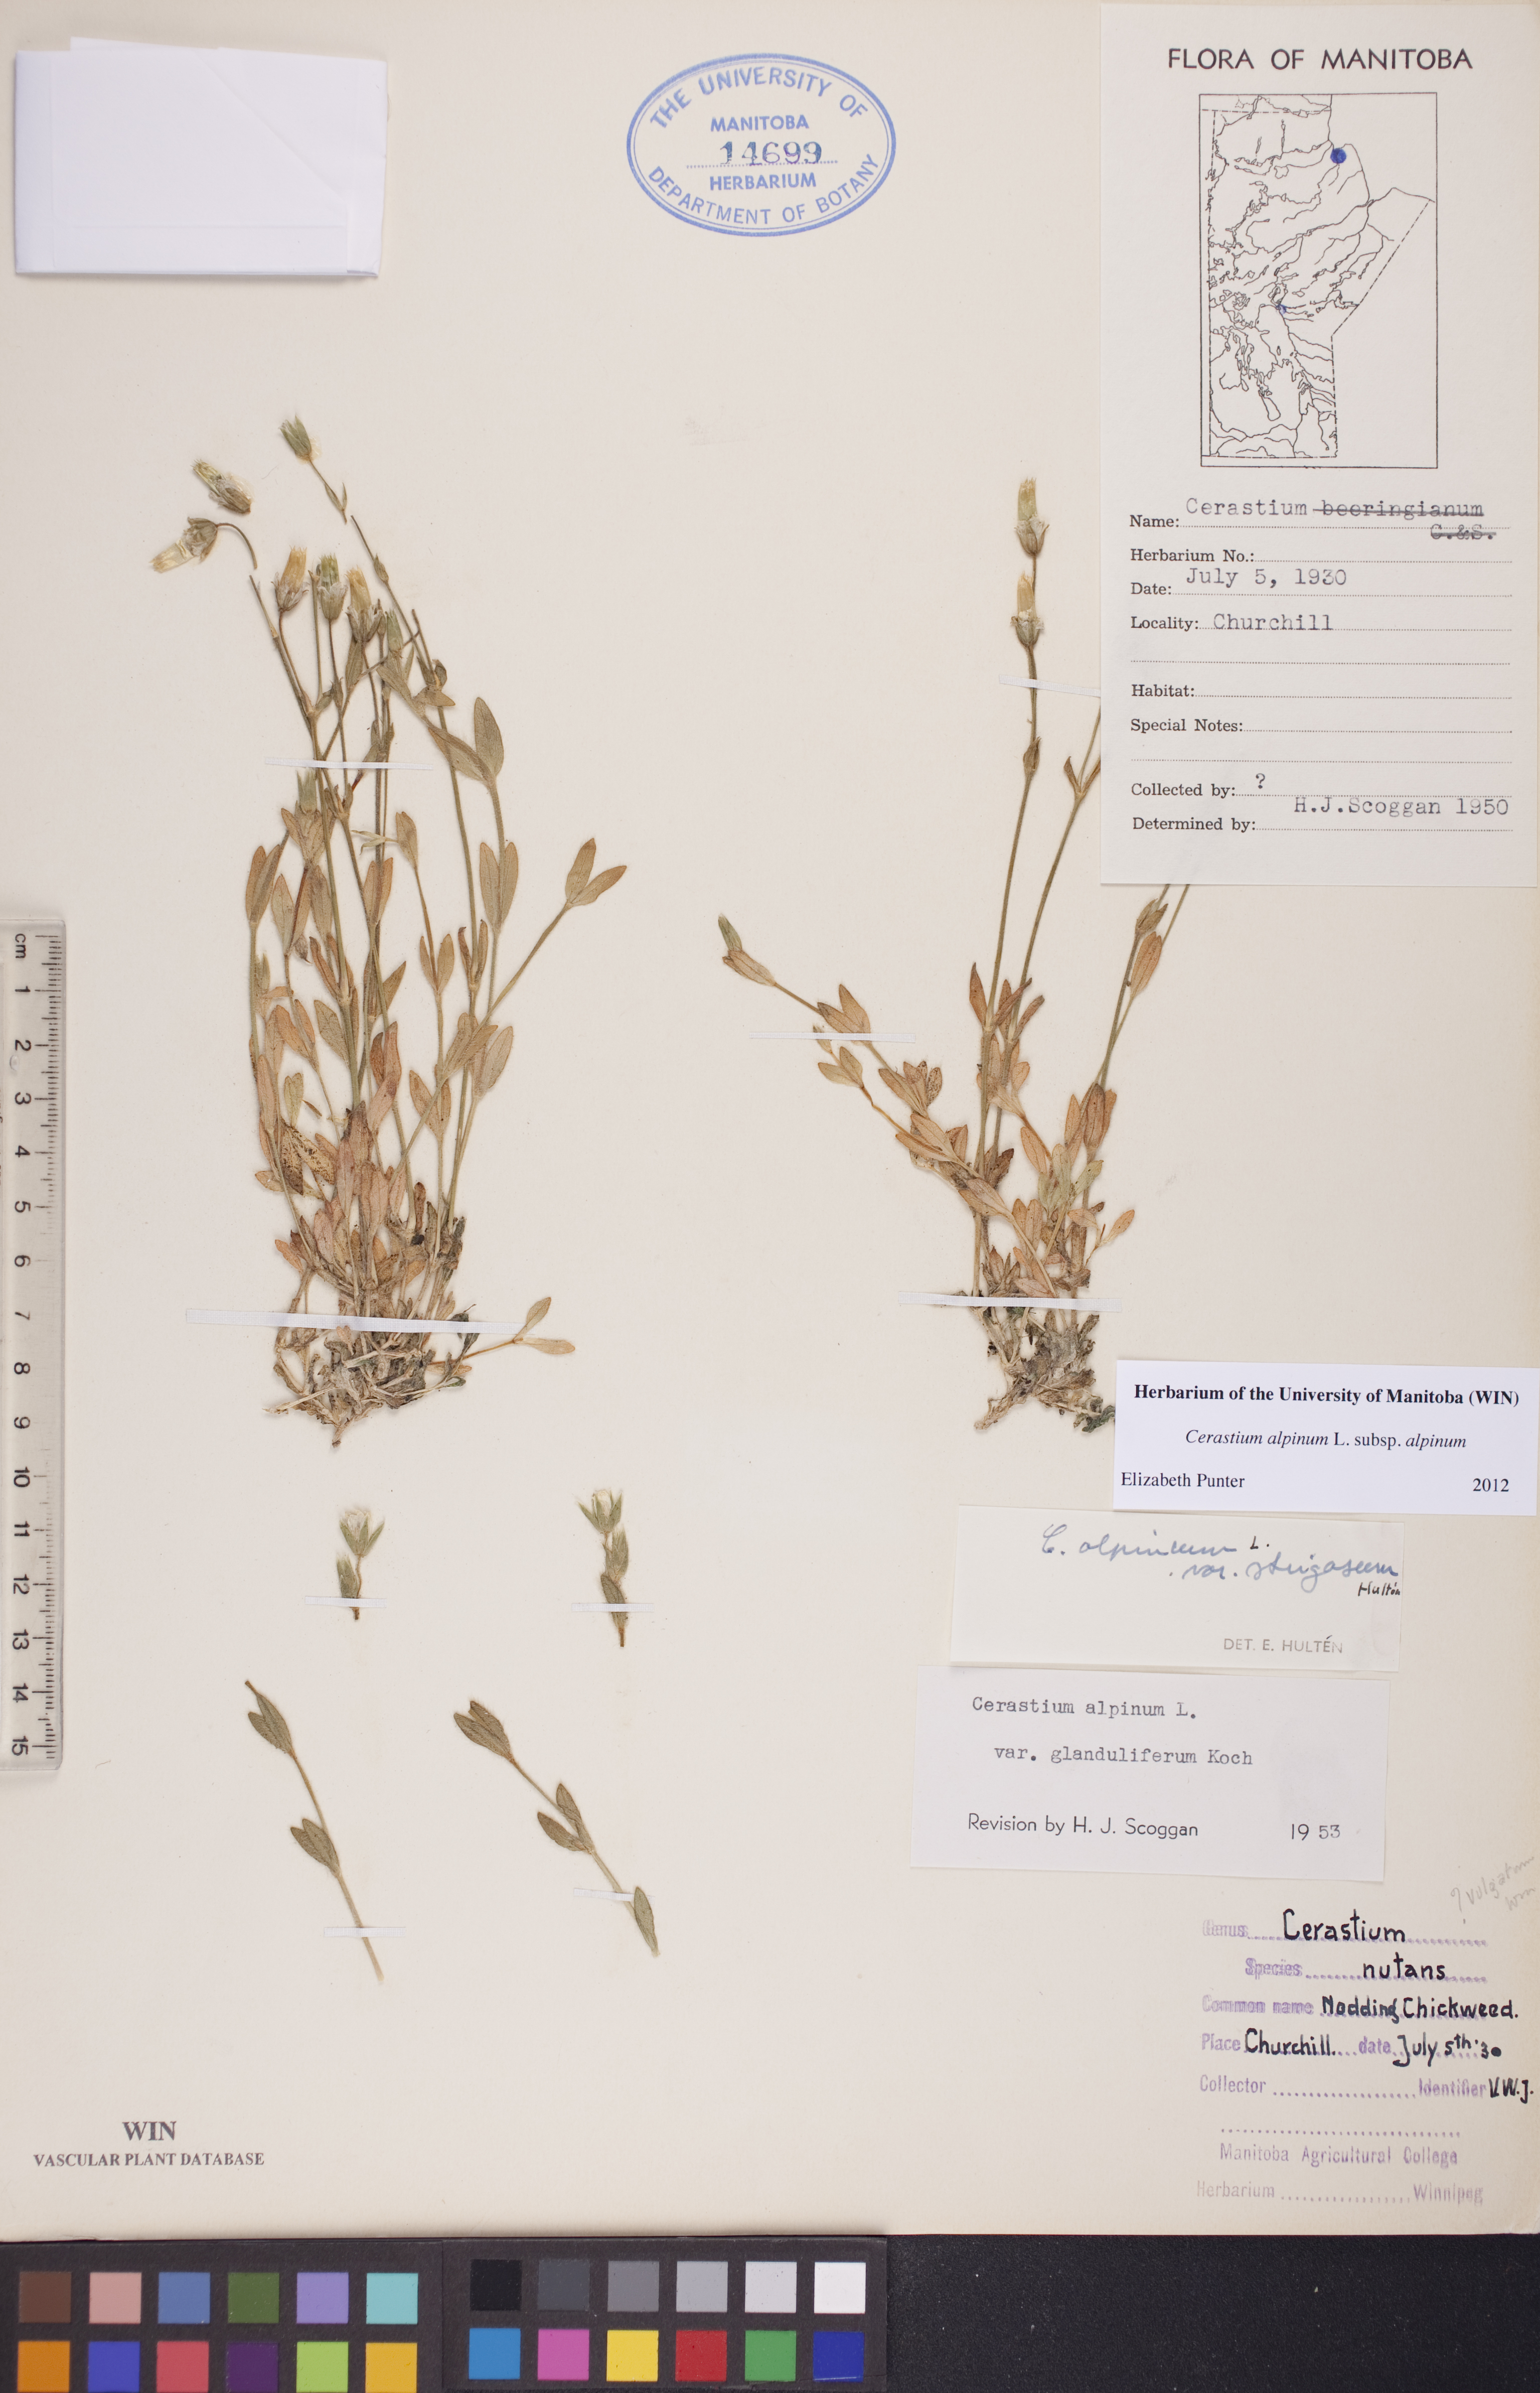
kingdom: Plantae
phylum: Tracheophyta
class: Magnoliopsida
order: Caryophyllales
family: Caryophyllaceae
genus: Cerastium
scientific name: Cerastium alpinum
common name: Alpine mouse-ear
